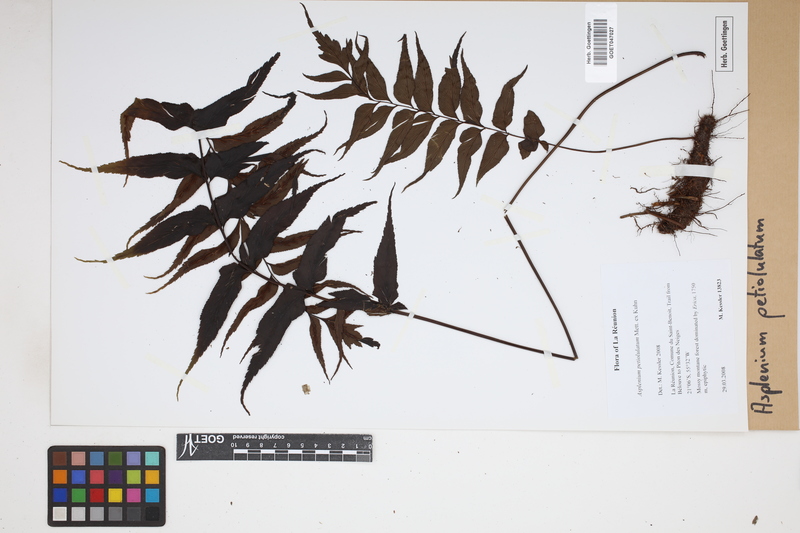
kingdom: Plantae
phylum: Tracheophyta
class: Polypodiopsida
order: Polypodiales
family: Aspleniaceae
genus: Asplenium
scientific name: Asplenium petiolulatum
